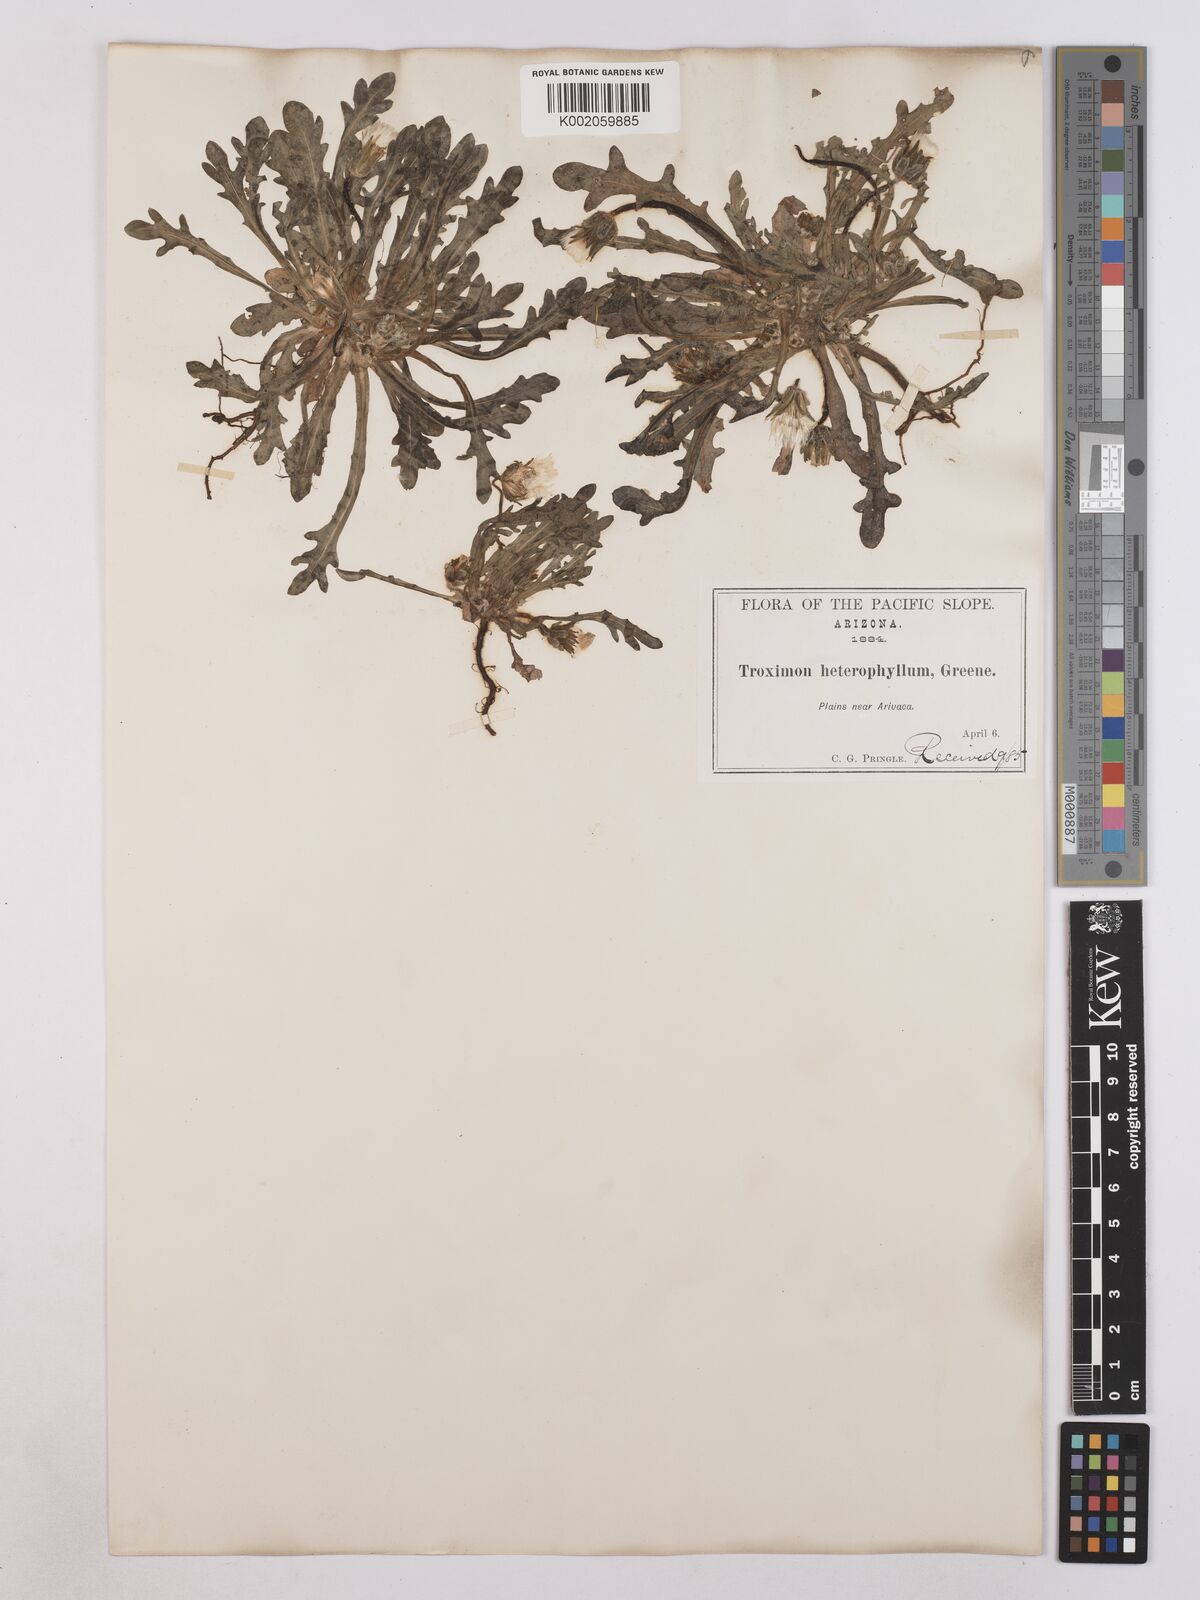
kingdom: Plantae
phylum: Tracheophyta
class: Magnoliopsida
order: Asterales
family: Asteraceae
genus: Agoseris
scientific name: Agoseris heterophylla
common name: Annual agoseris
